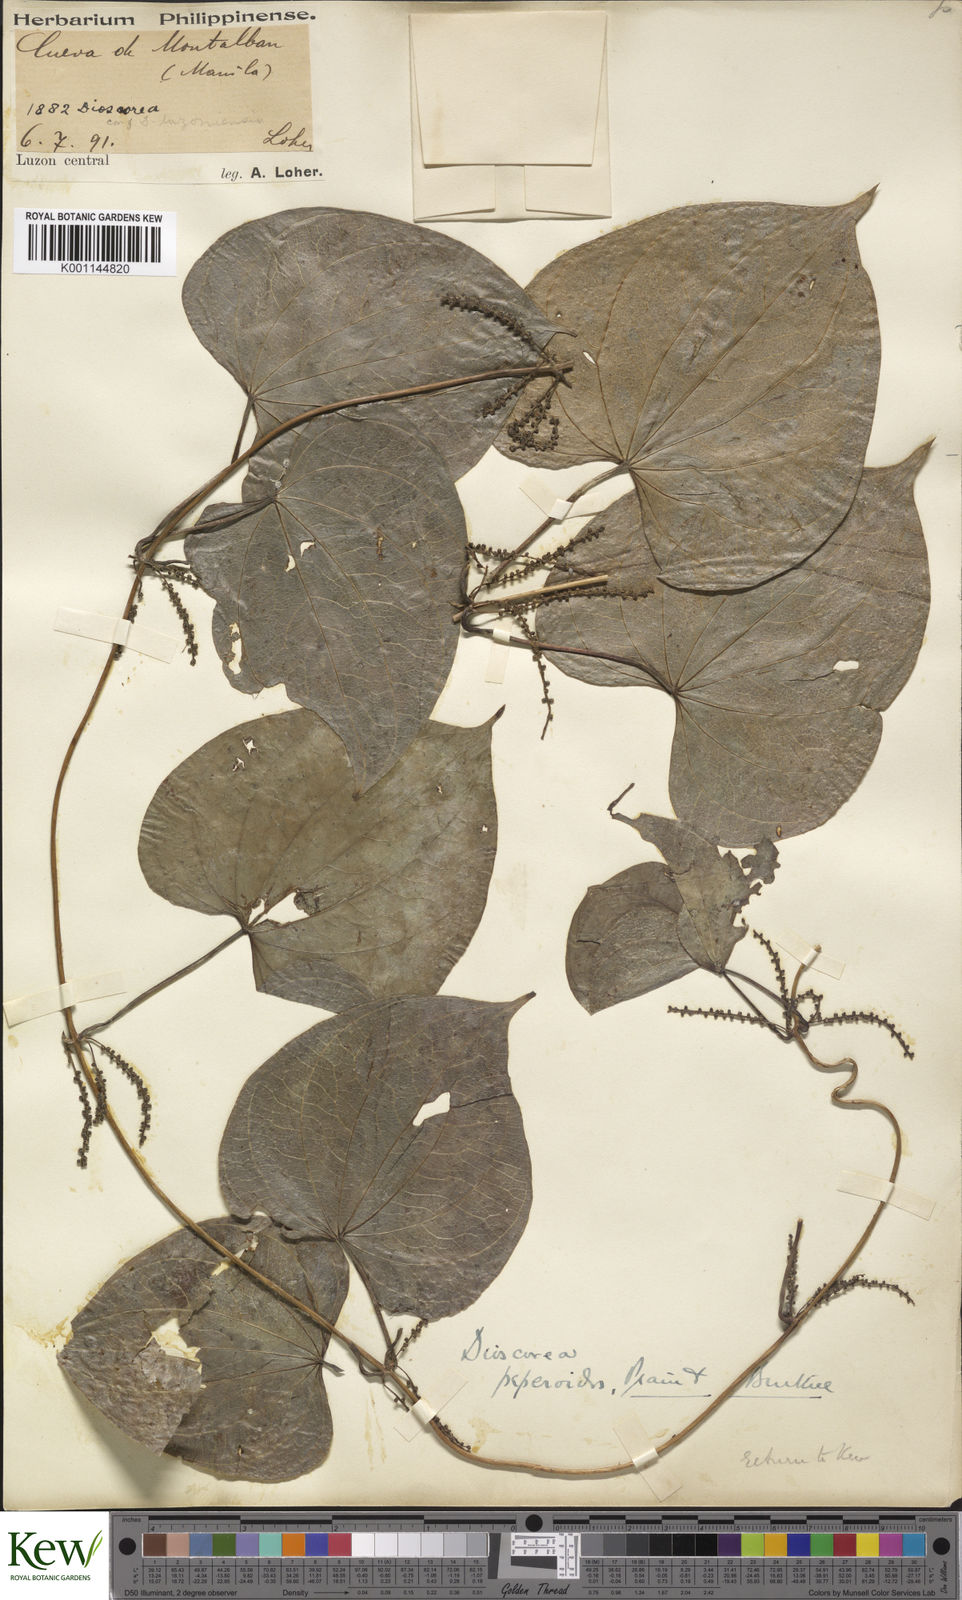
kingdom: Plantae
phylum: Tracheophyta
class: Liliopsida
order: Dioscoreales
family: Dioscoreaceae
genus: Dioscorea
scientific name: Dioscorea peperoides
